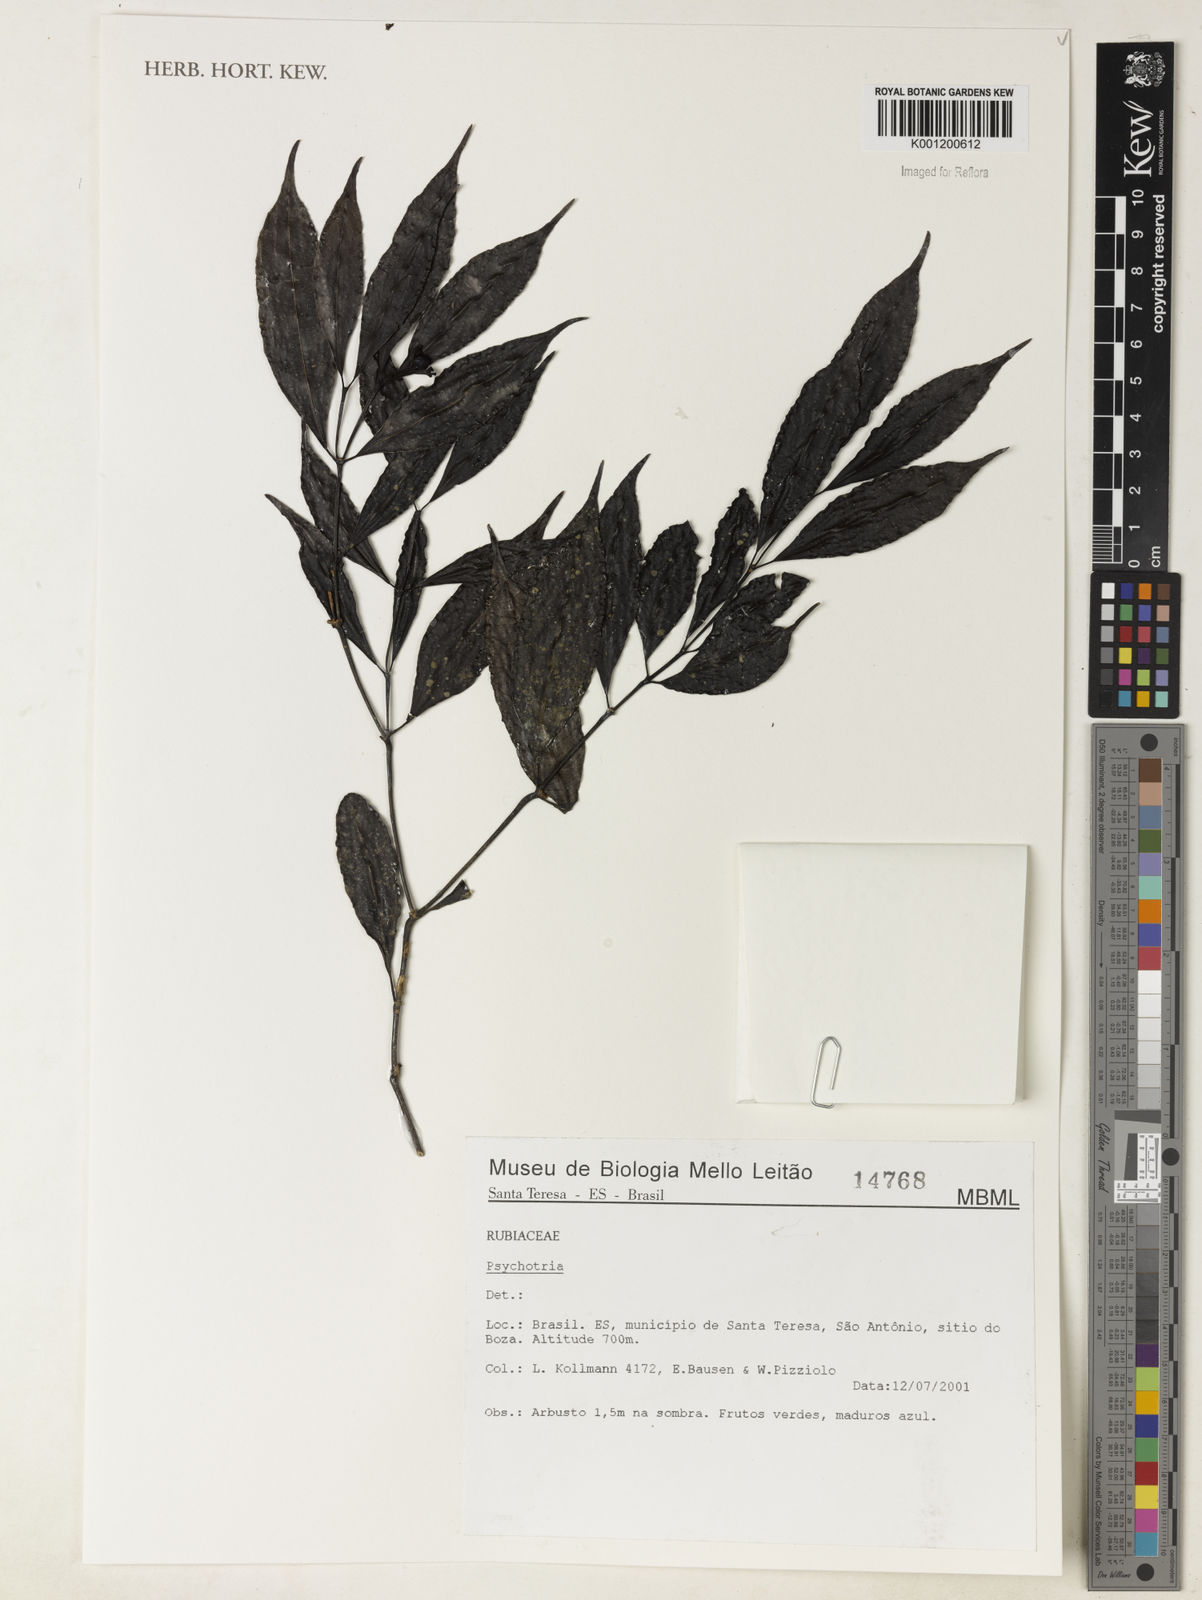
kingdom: Plantae
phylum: Tracheophyta
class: Magnoliopsida
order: Gentianales
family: Rubiaceae
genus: Psychotria
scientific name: Psychotria
